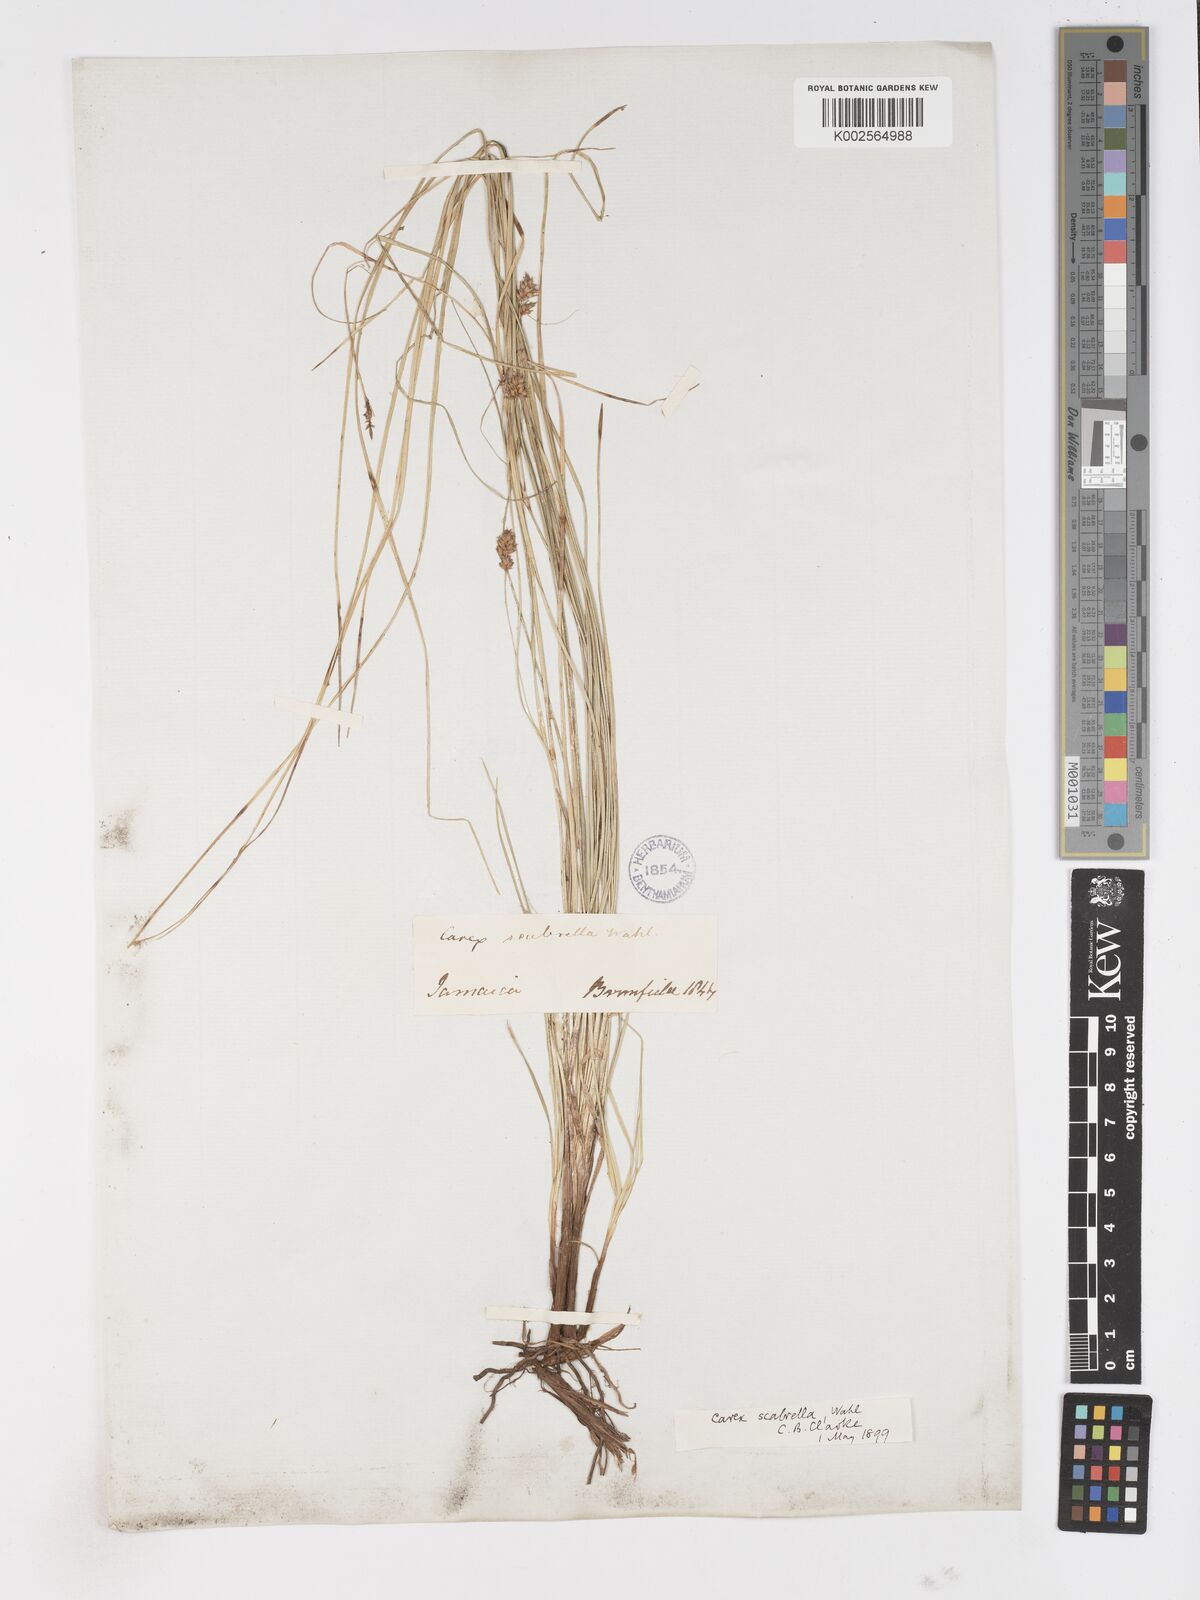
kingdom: Plantae
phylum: Tracheophyta
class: Liliopsida
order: Poales
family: Cyperaceae
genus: Carex
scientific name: Carex
